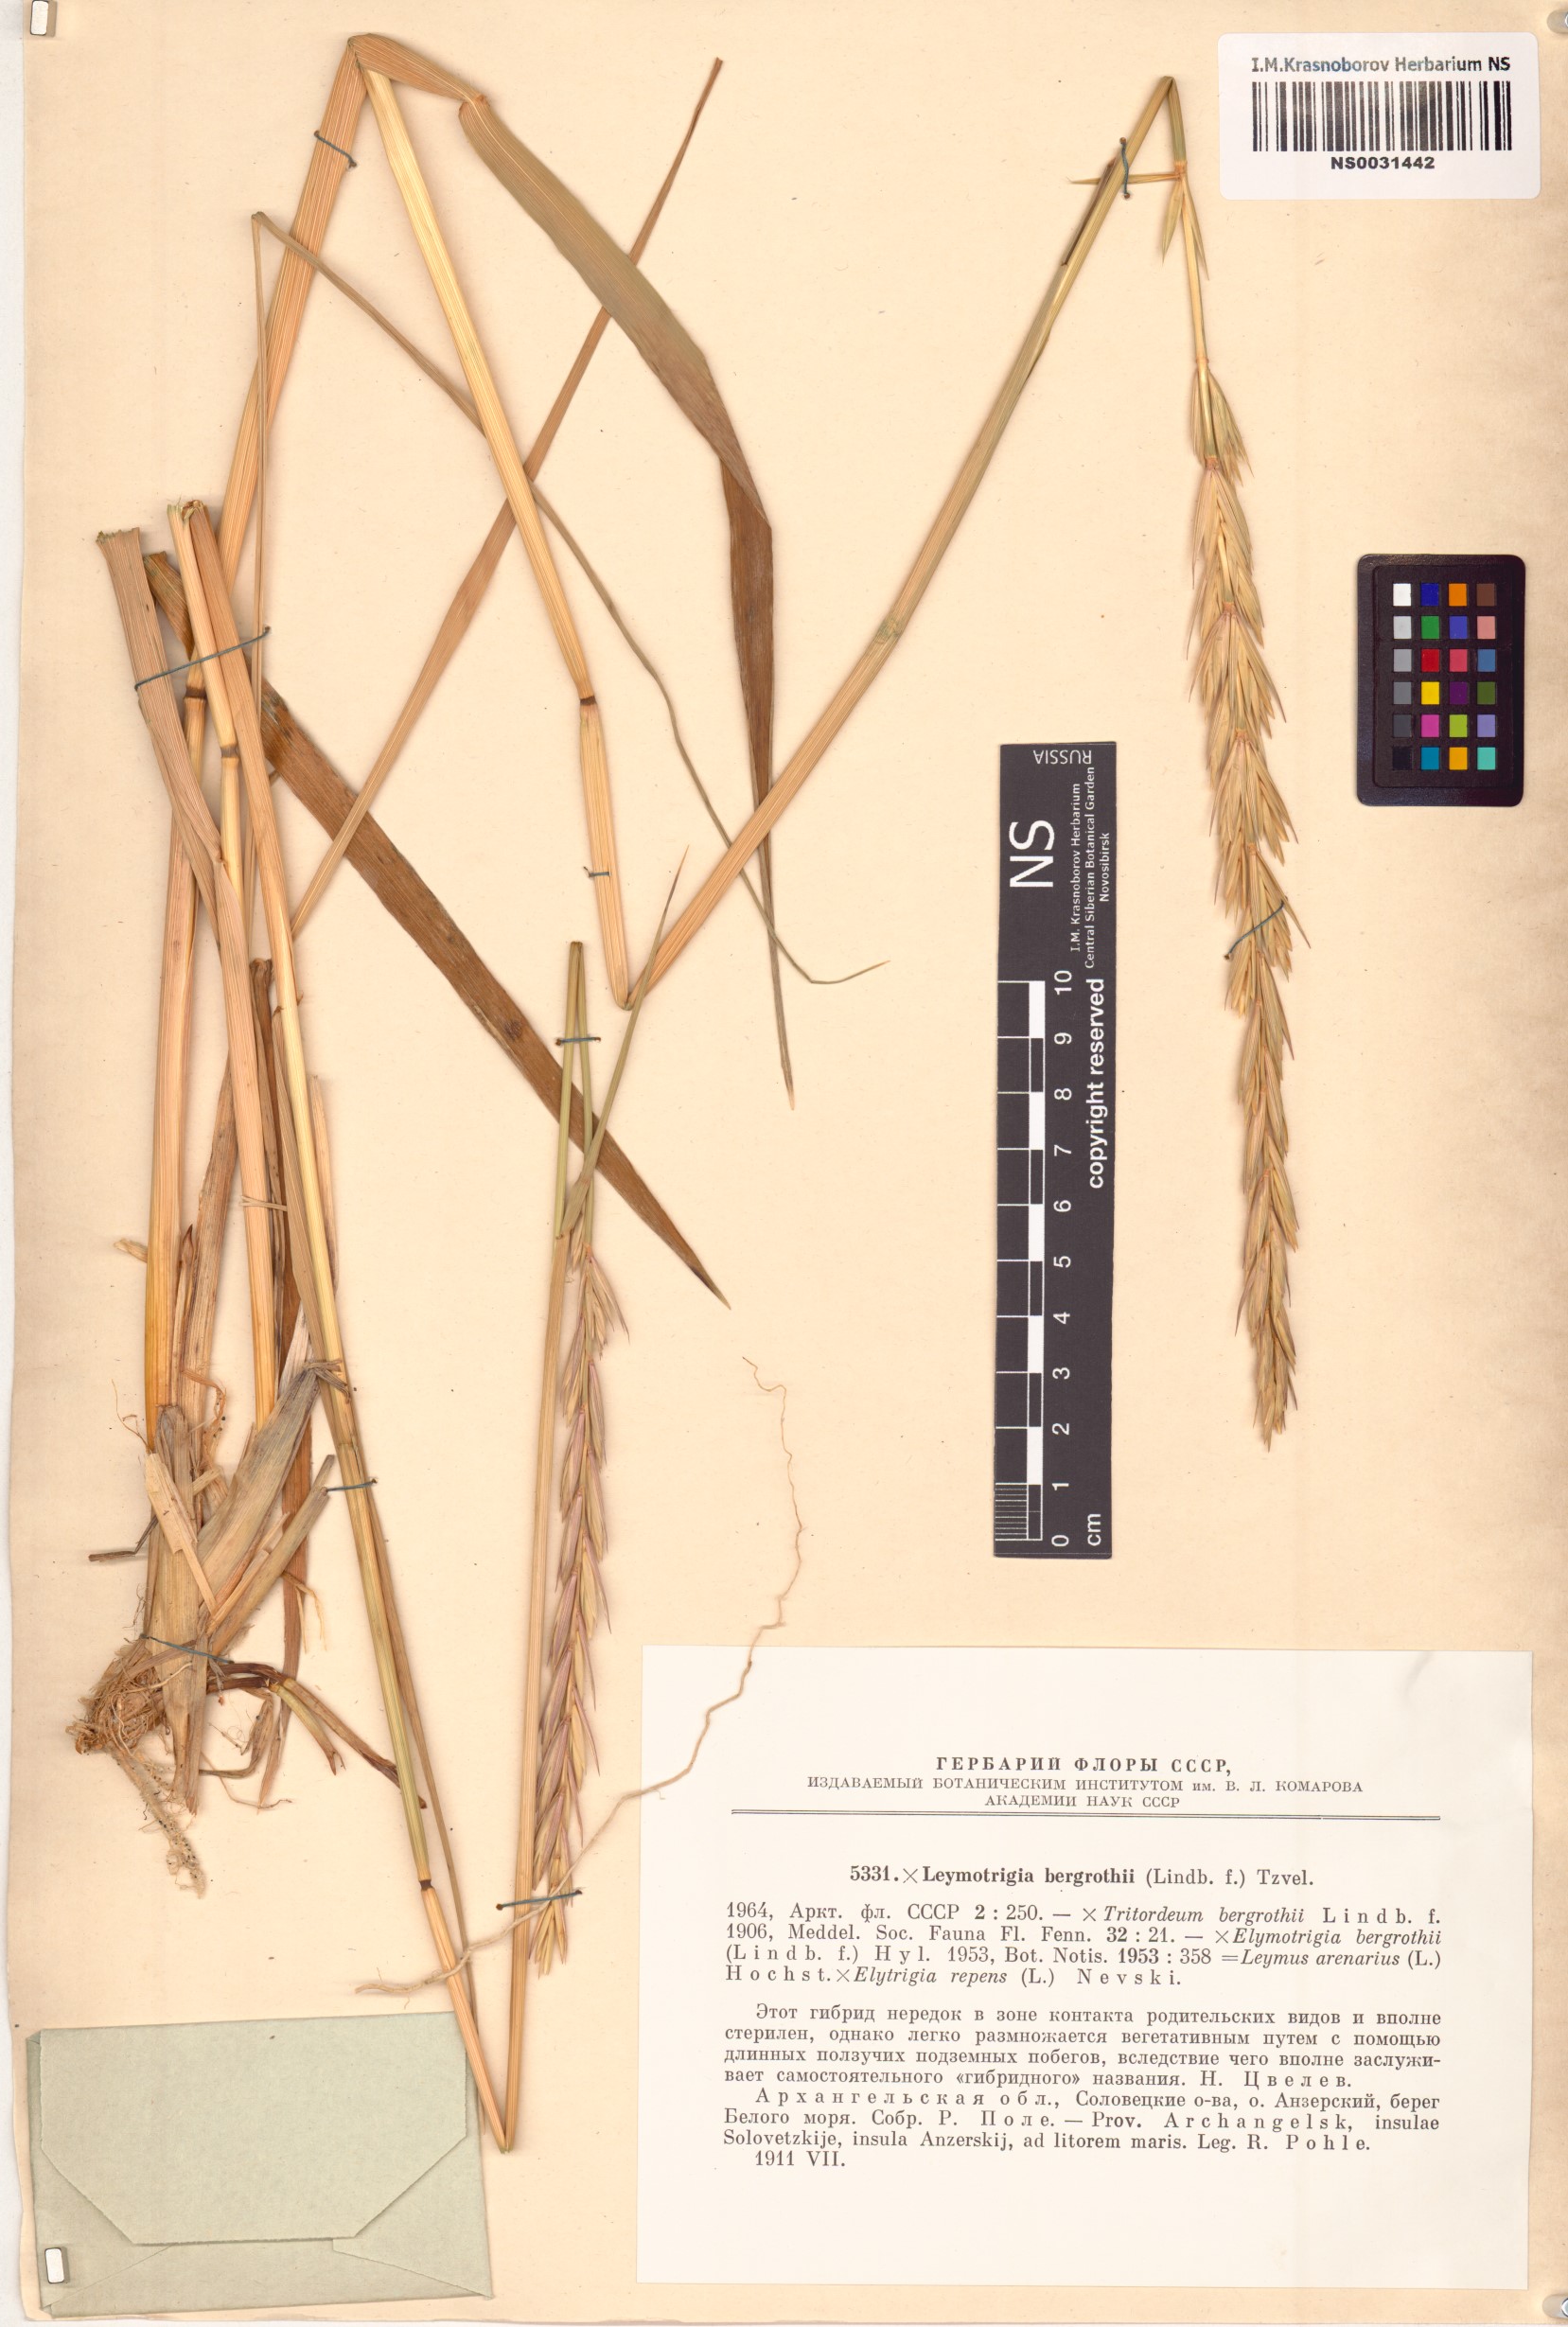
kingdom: Plantae
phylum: Tracheophyta
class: Liliopsida
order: Poales
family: Poaceae
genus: Elyleymus
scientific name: Elyleymus bergrothii
